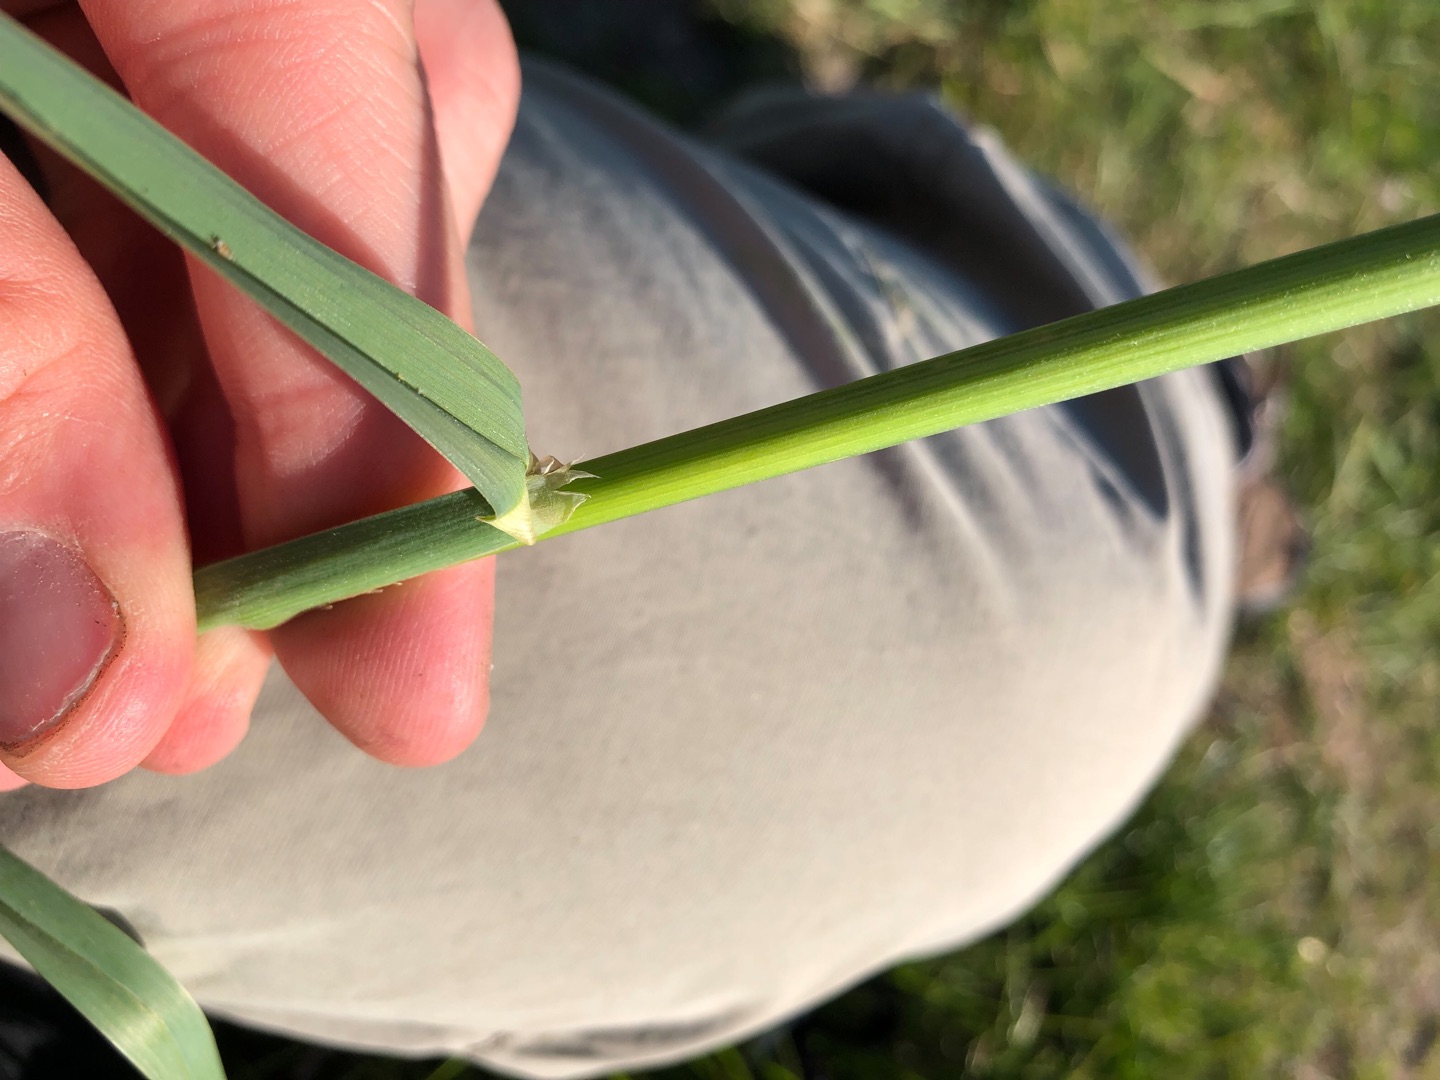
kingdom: Plantae
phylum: Tracheophyta
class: Liliopsida
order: Poales
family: Poaceae
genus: Dactylis
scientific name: Dactylis glomerata
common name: Almindelig hundegræs
